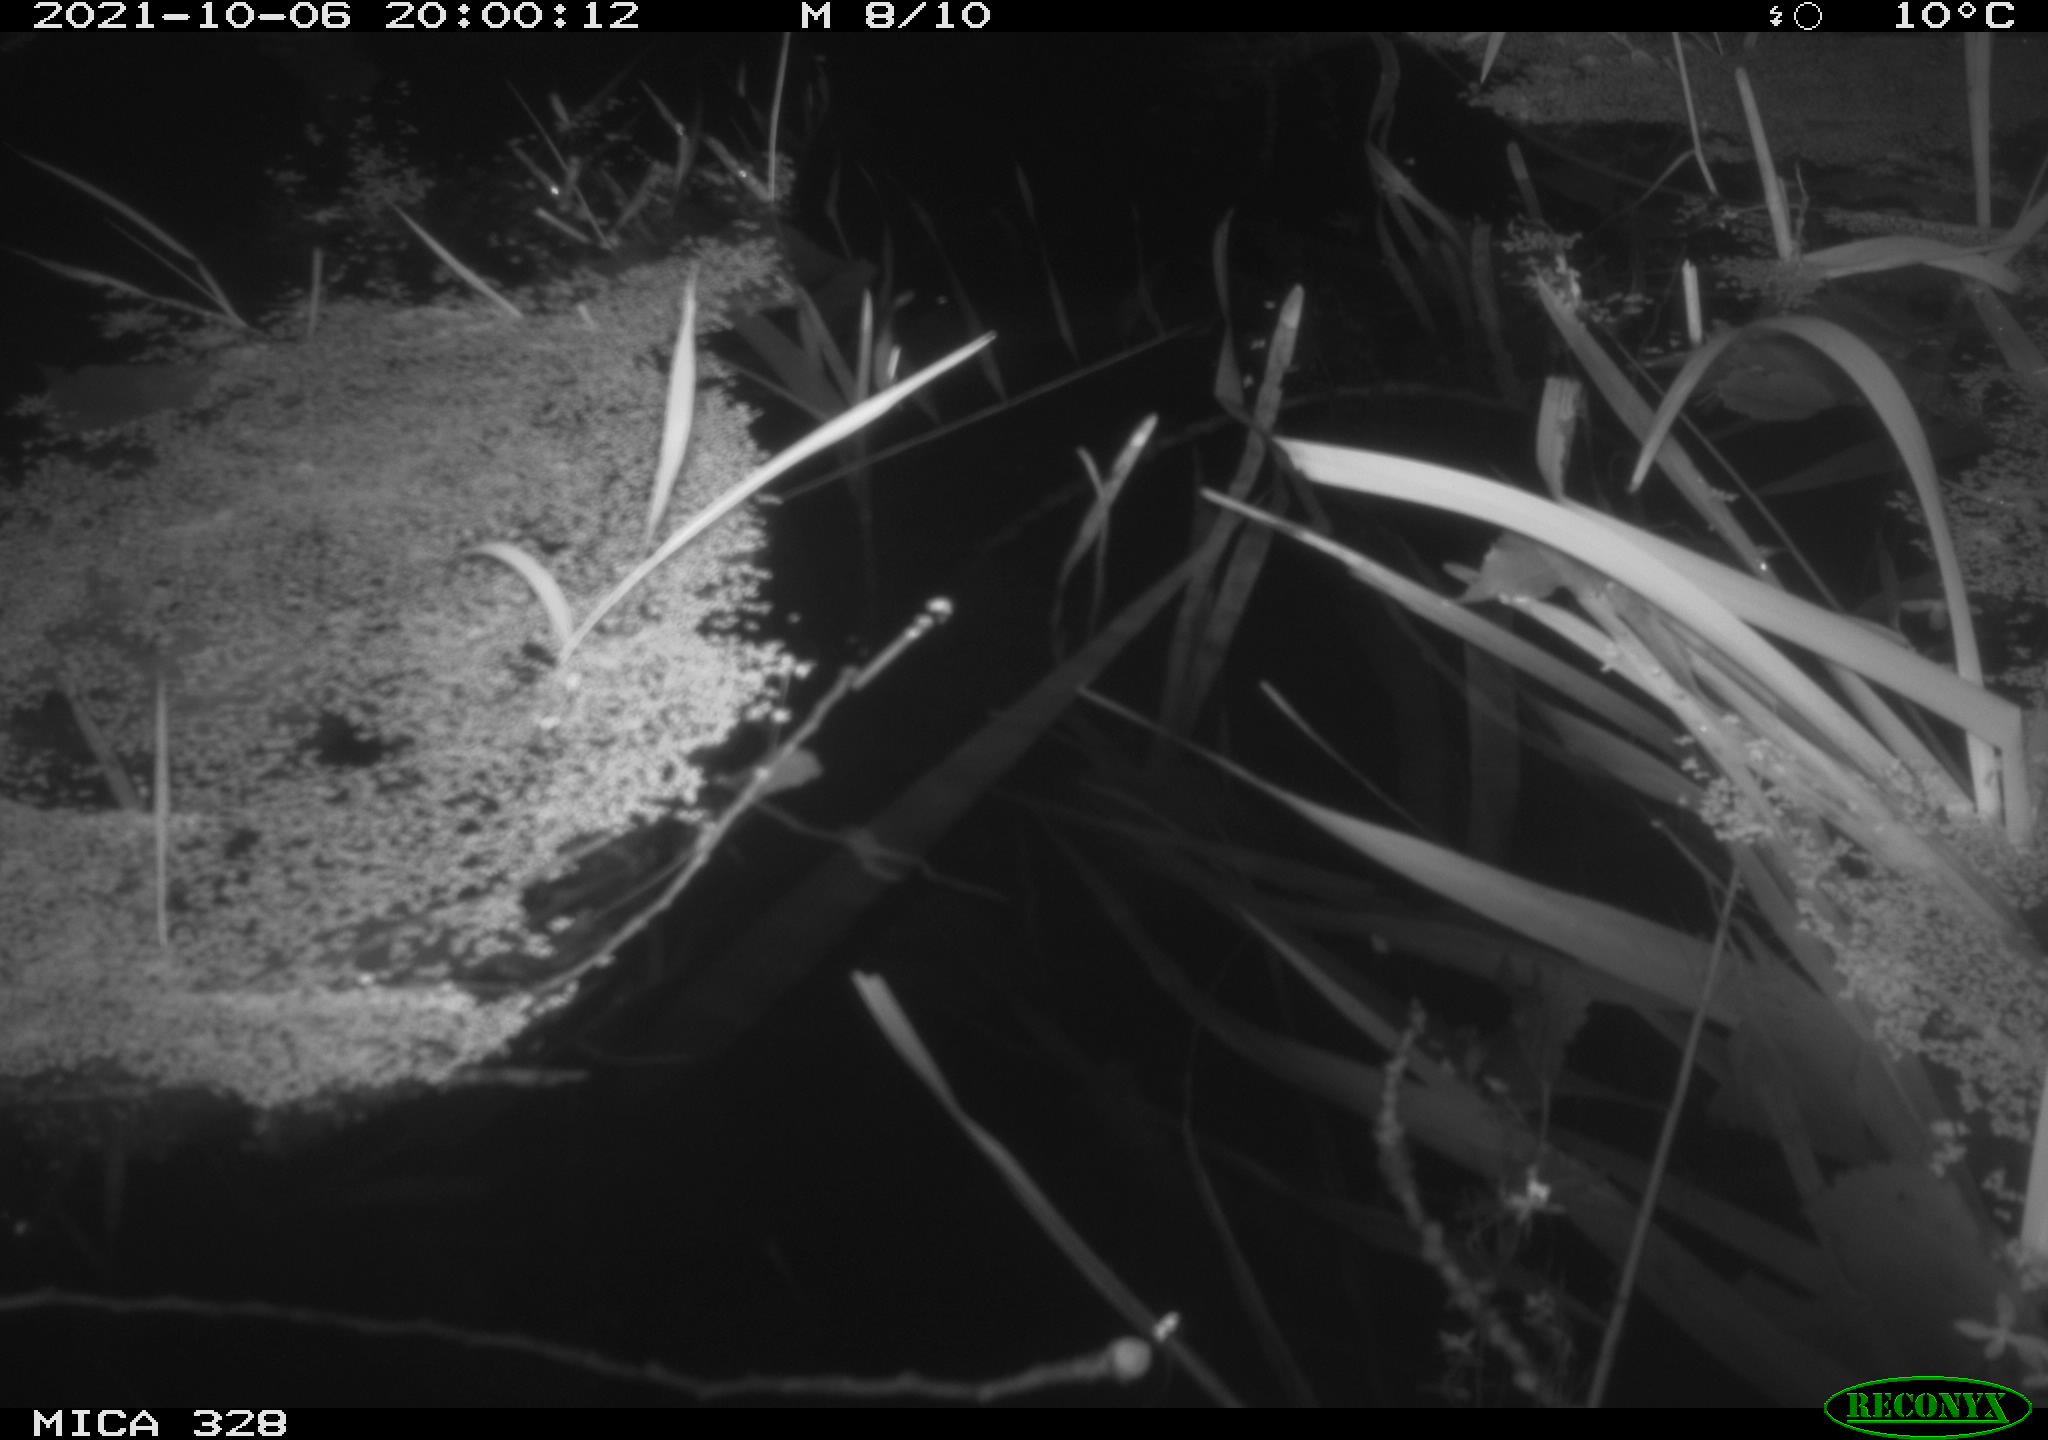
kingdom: Animalia
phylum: Chordata
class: Mammalia
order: Rodentia
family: Cricetidae
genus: Ondatra
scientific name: Ondatra zibethicus
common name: Muskrat
